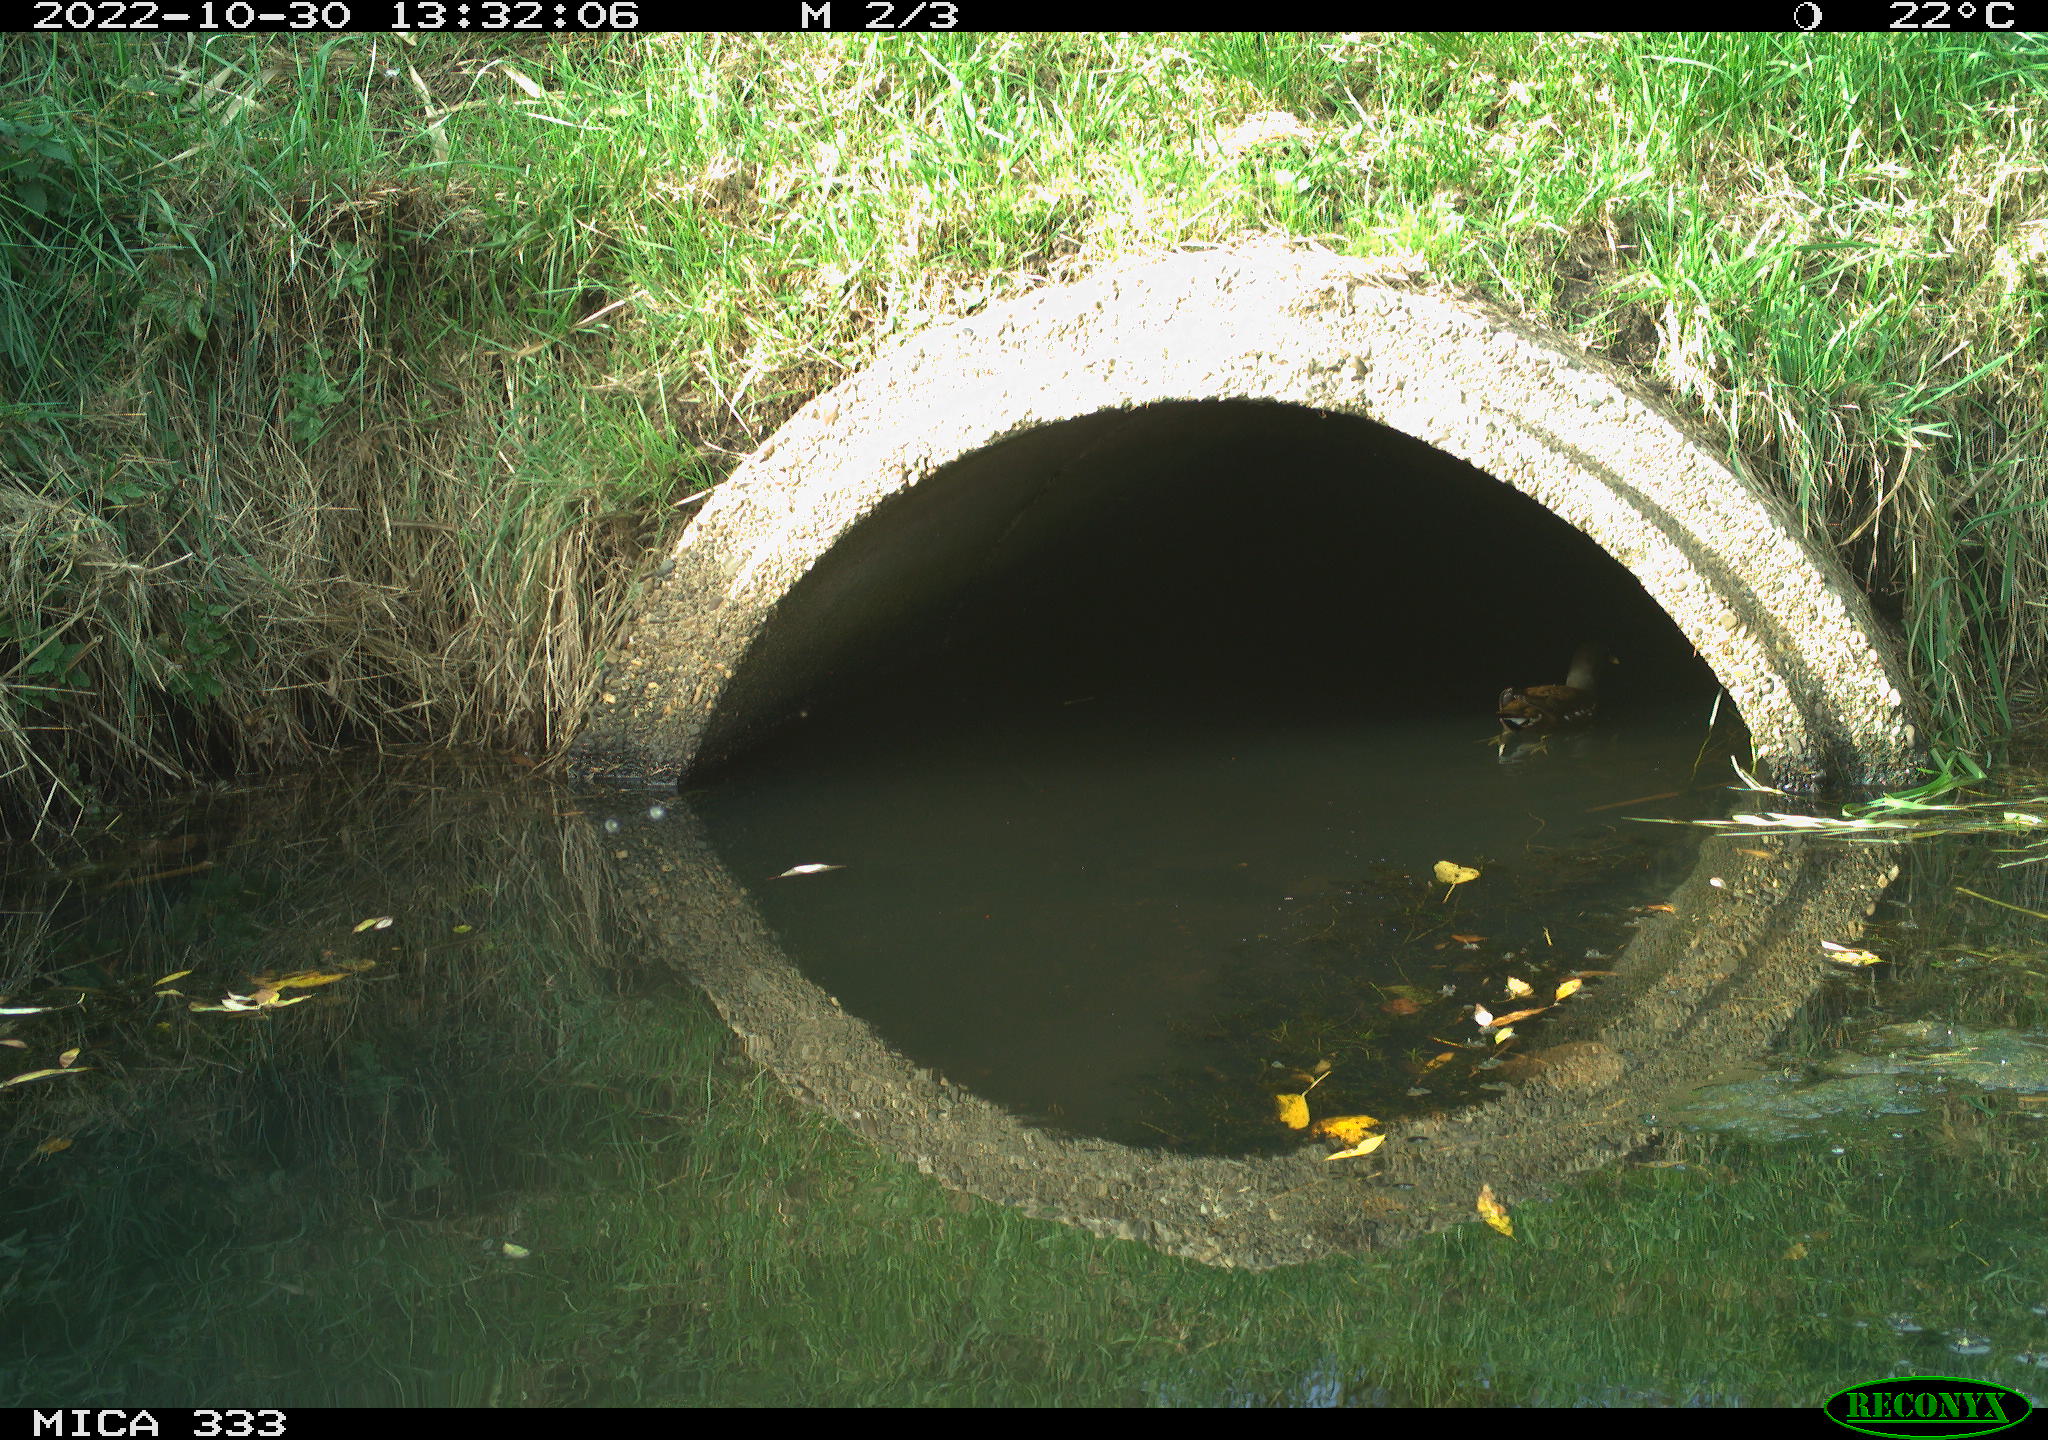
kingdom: Animalia
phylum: Chordata
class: Aves
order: Gruiformes
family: Rallidae
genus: Gallinula
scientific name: Gallinula chloropus
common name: Common moorhen
